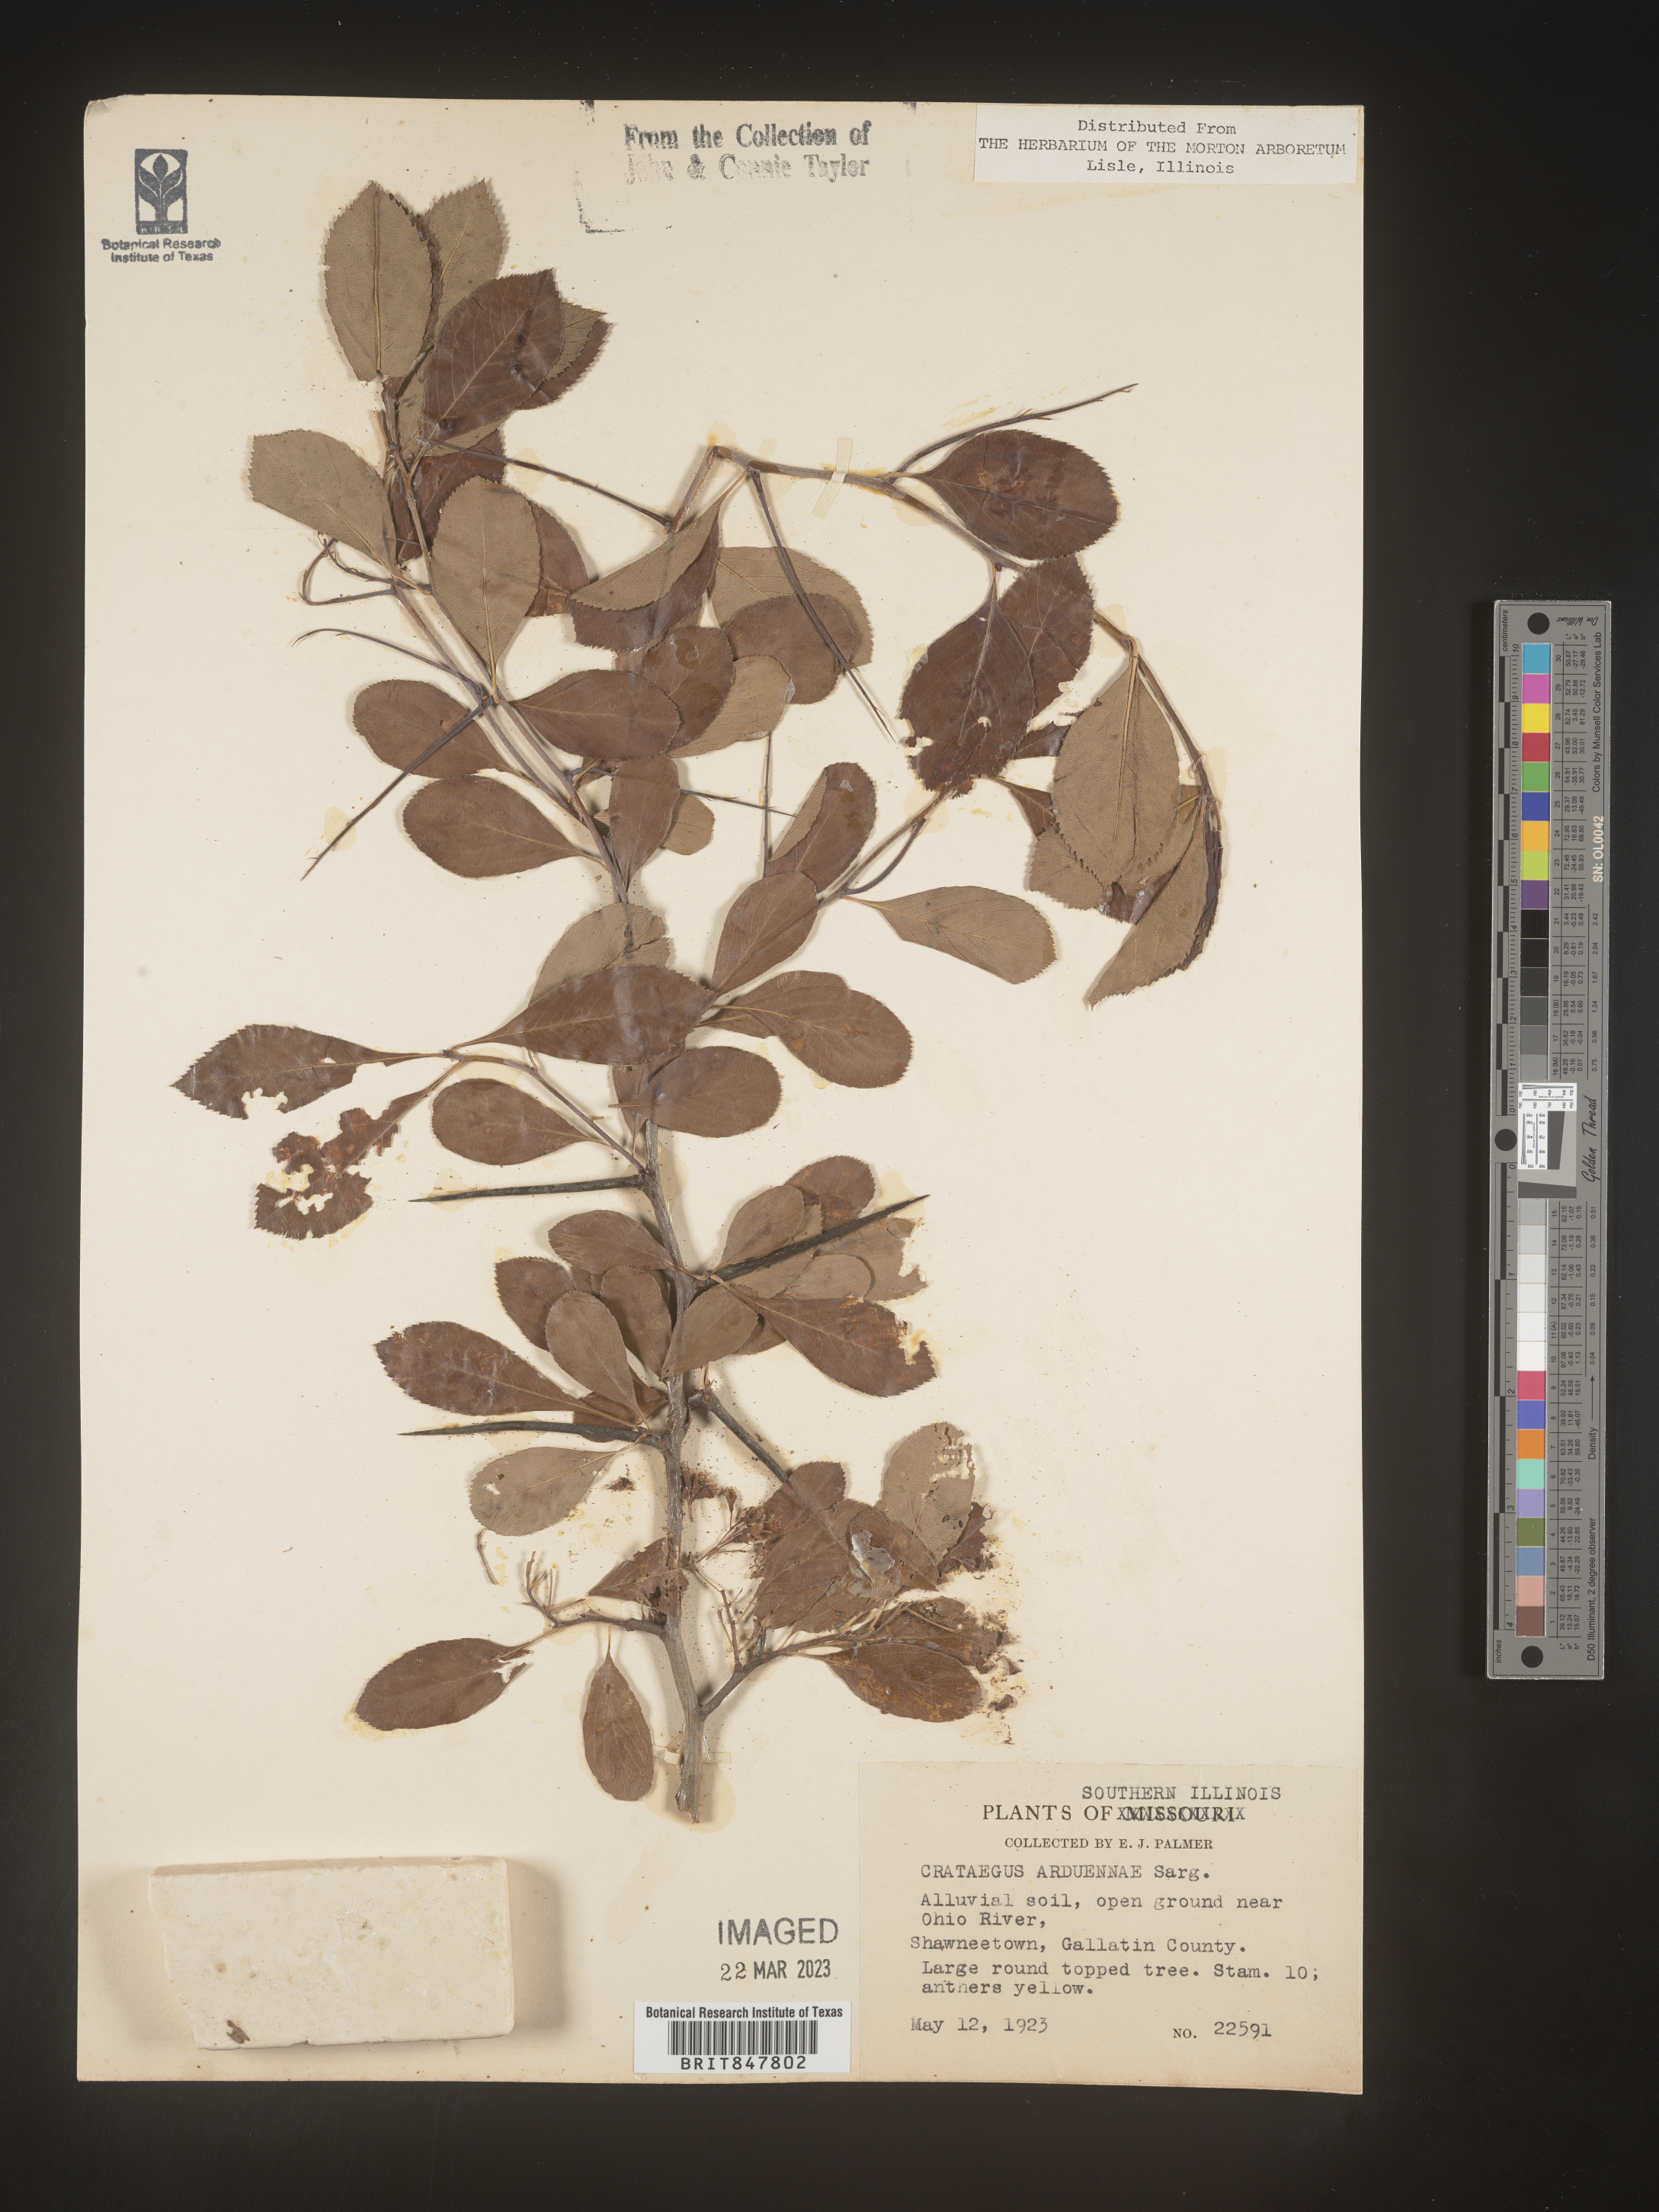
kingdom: Plantae
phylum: Tracheophyta
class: Magnoliopsida
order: Rosales
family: Rosaceae
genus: Crataegus
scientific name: Crataegus chrysocarpa
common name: Fire-berry hawthorn
